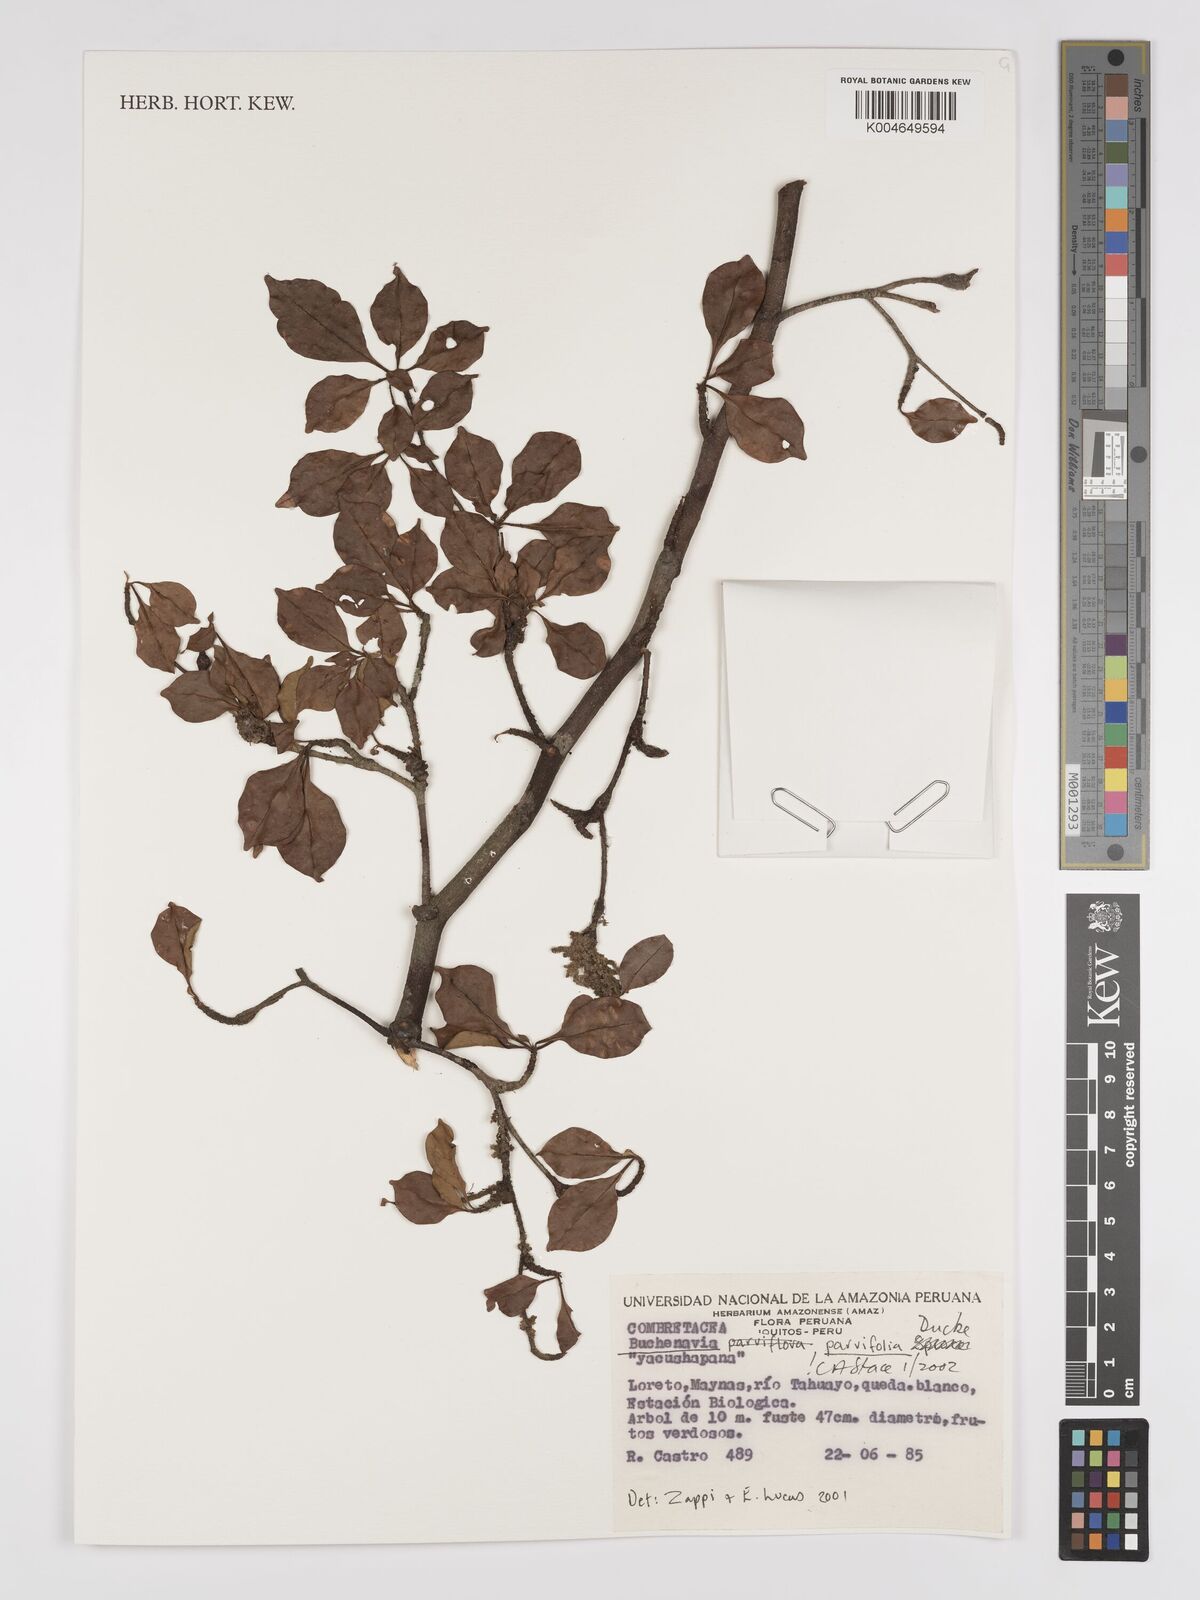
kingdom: Plantae
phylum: Tracheophyta
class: Magnoliopsida
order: Myrtales
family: Combretaceae
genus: Terminalia
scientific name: Terminalia parvifolia
